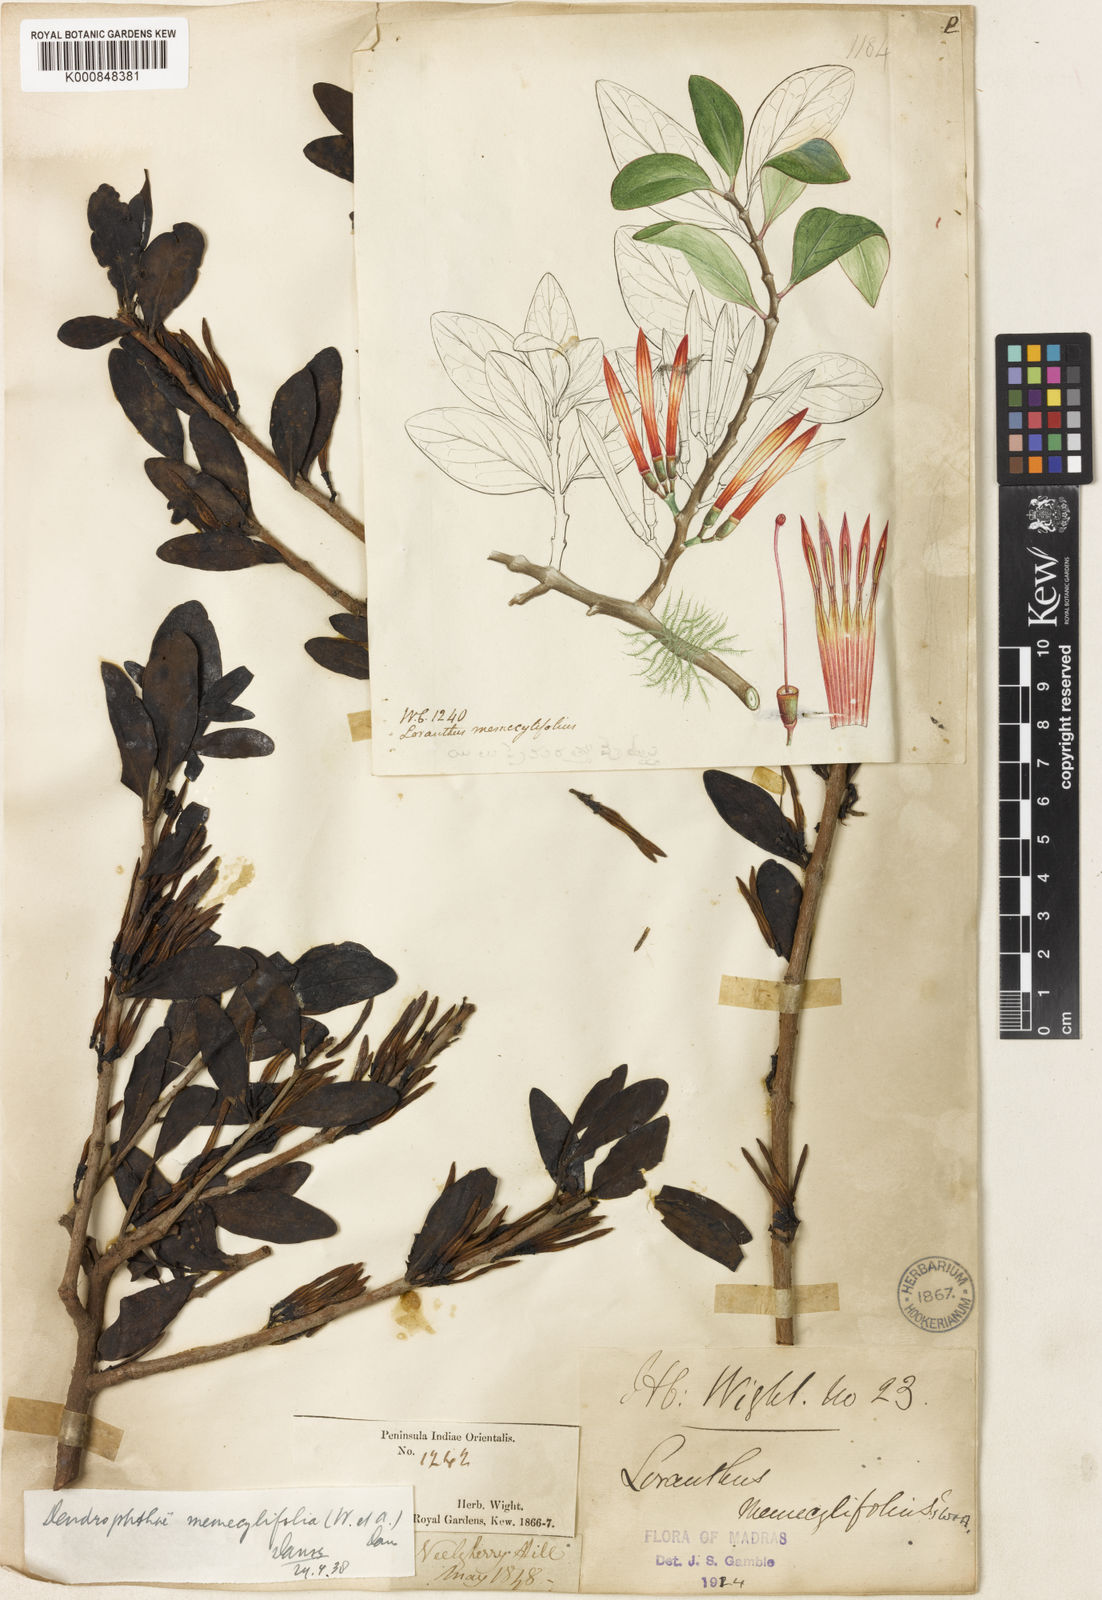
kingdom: Plantae
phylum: Tracheophyta
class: Magnoliopsida
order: Santalales
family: Loranthaceae
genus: Dendrophthoe
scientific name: Dendrophthoe memecylifolia
